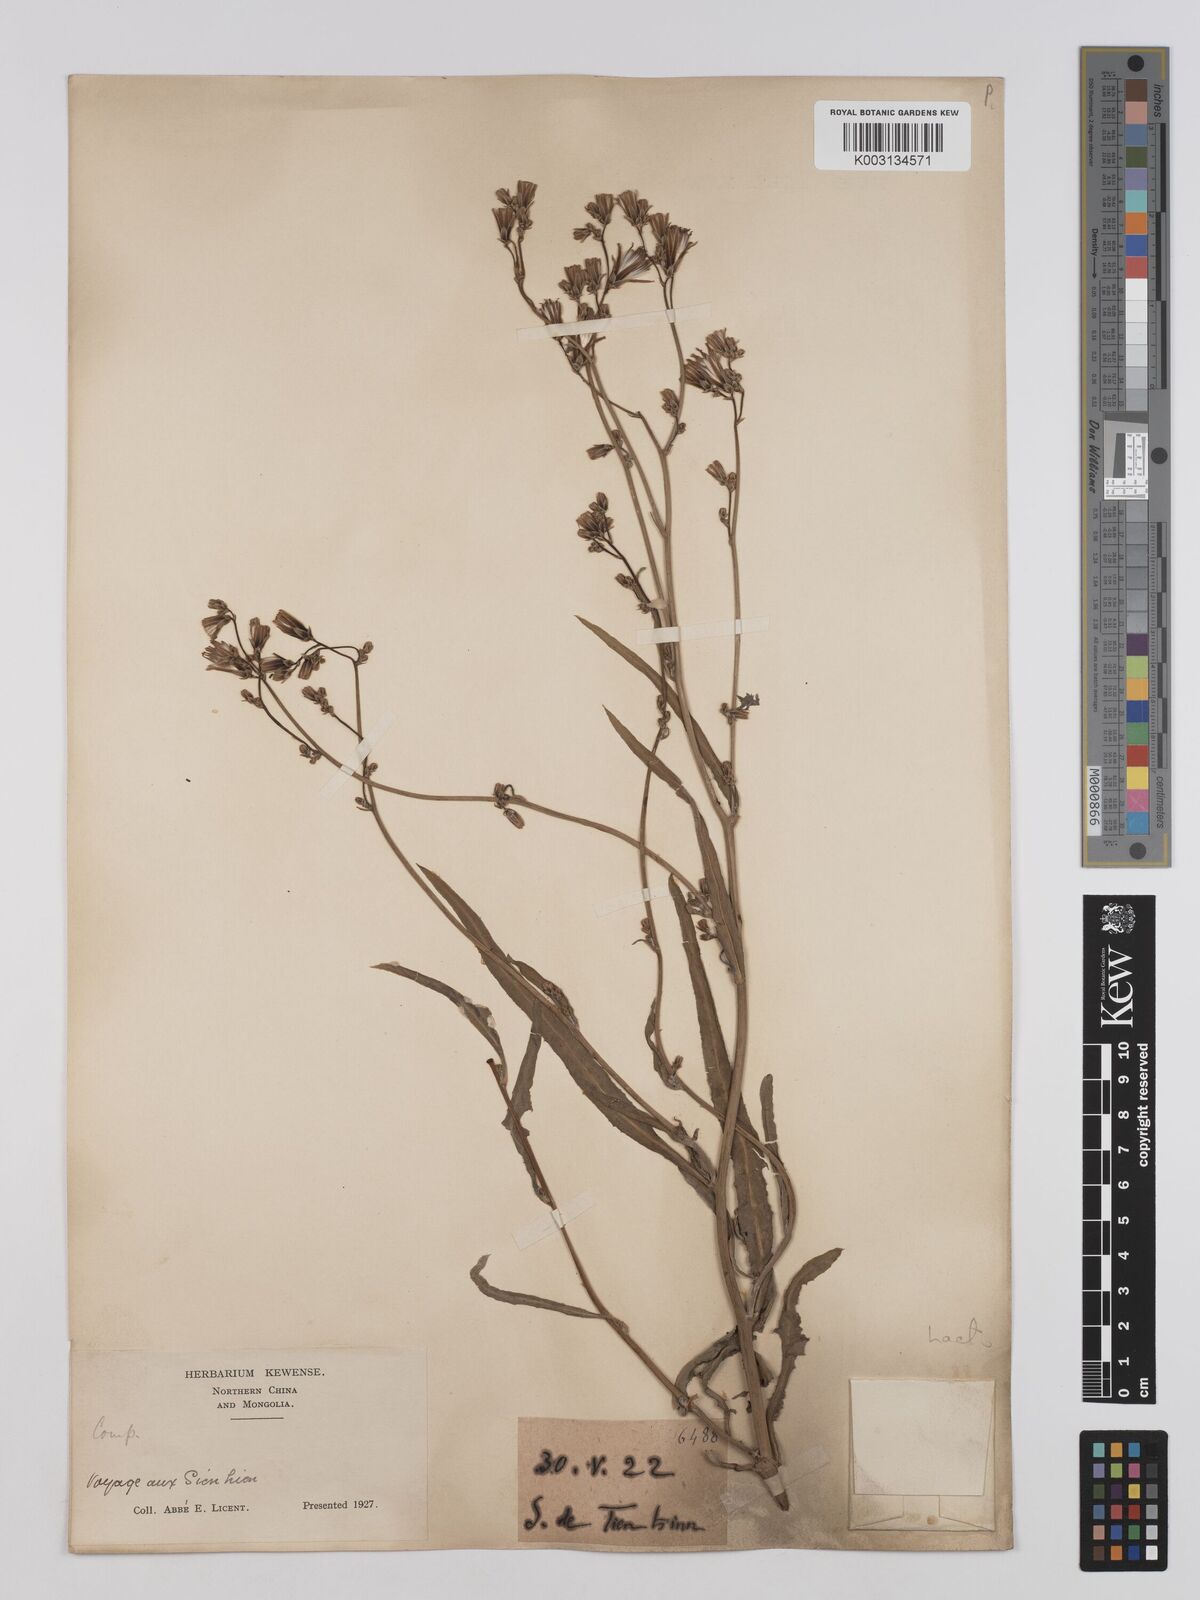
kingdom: Plantae
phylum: Tracheophyta
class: Magnoliopsida
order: Asterales
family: Asteraceae
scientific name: Asteraceae
